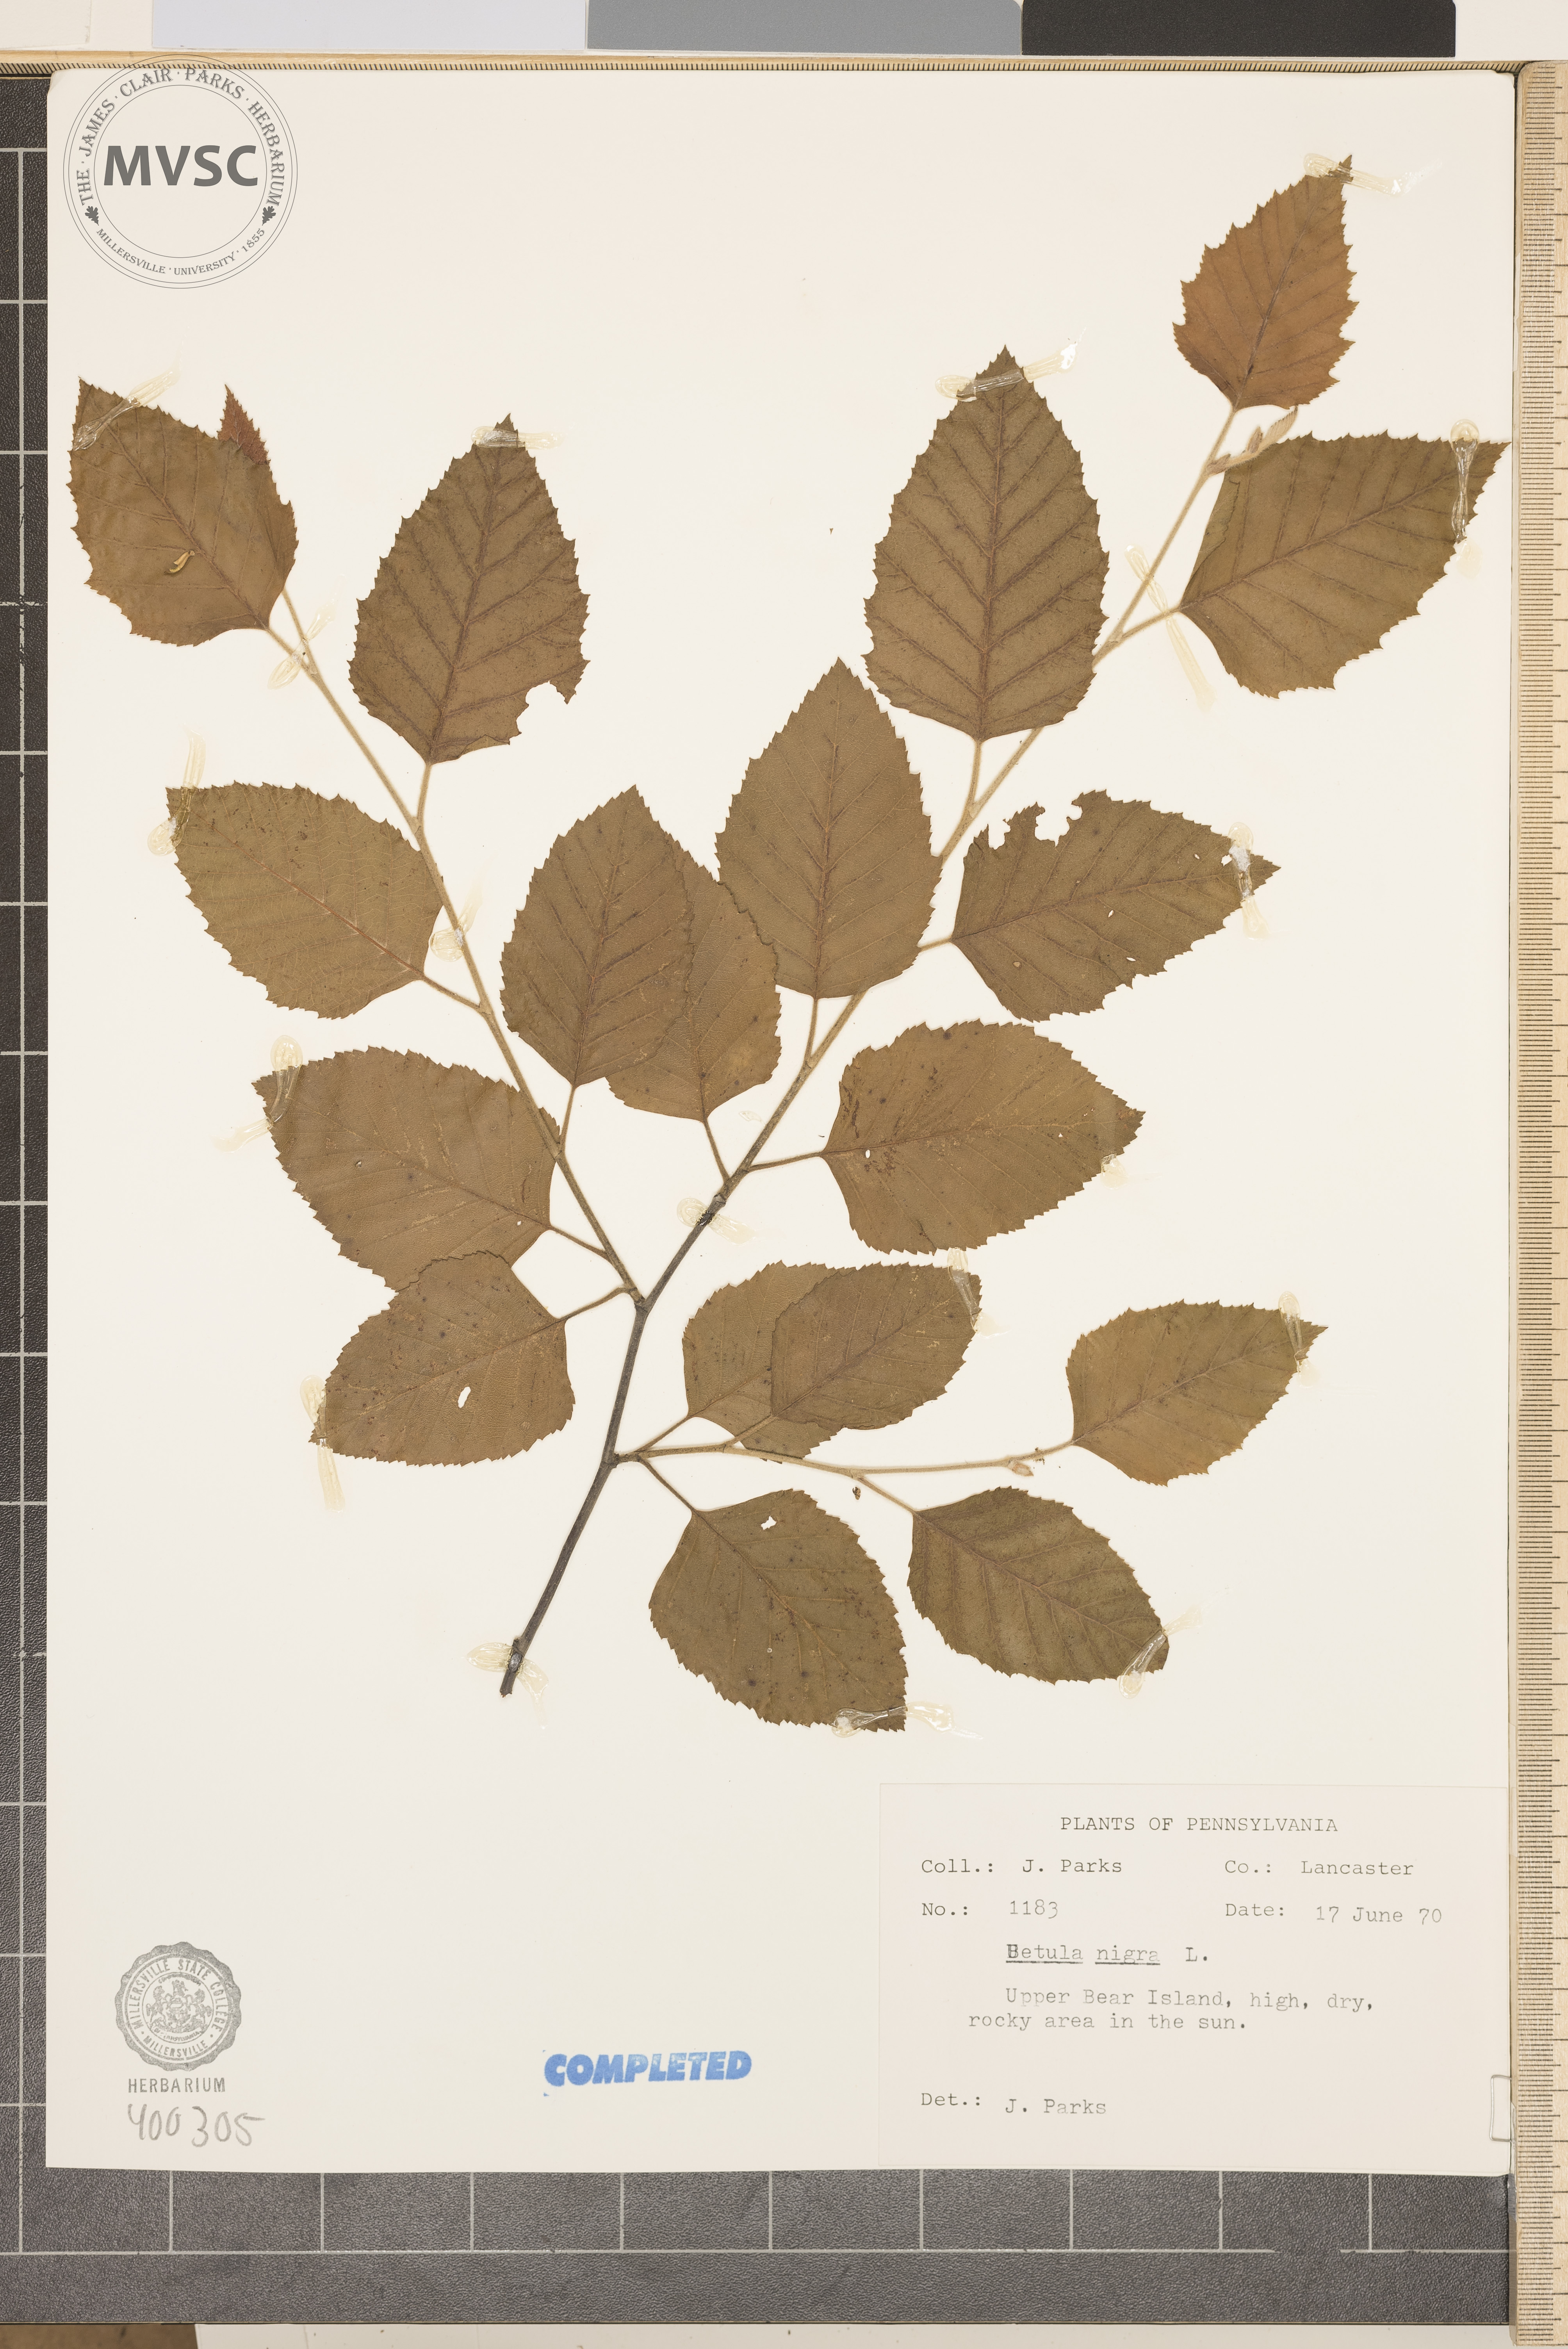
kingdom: Plantae
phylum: Tracheophyta
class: Magnoliopsida
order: Fagales
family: Betulaceae
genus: Betula
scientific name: Betula nigra
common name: river birch
